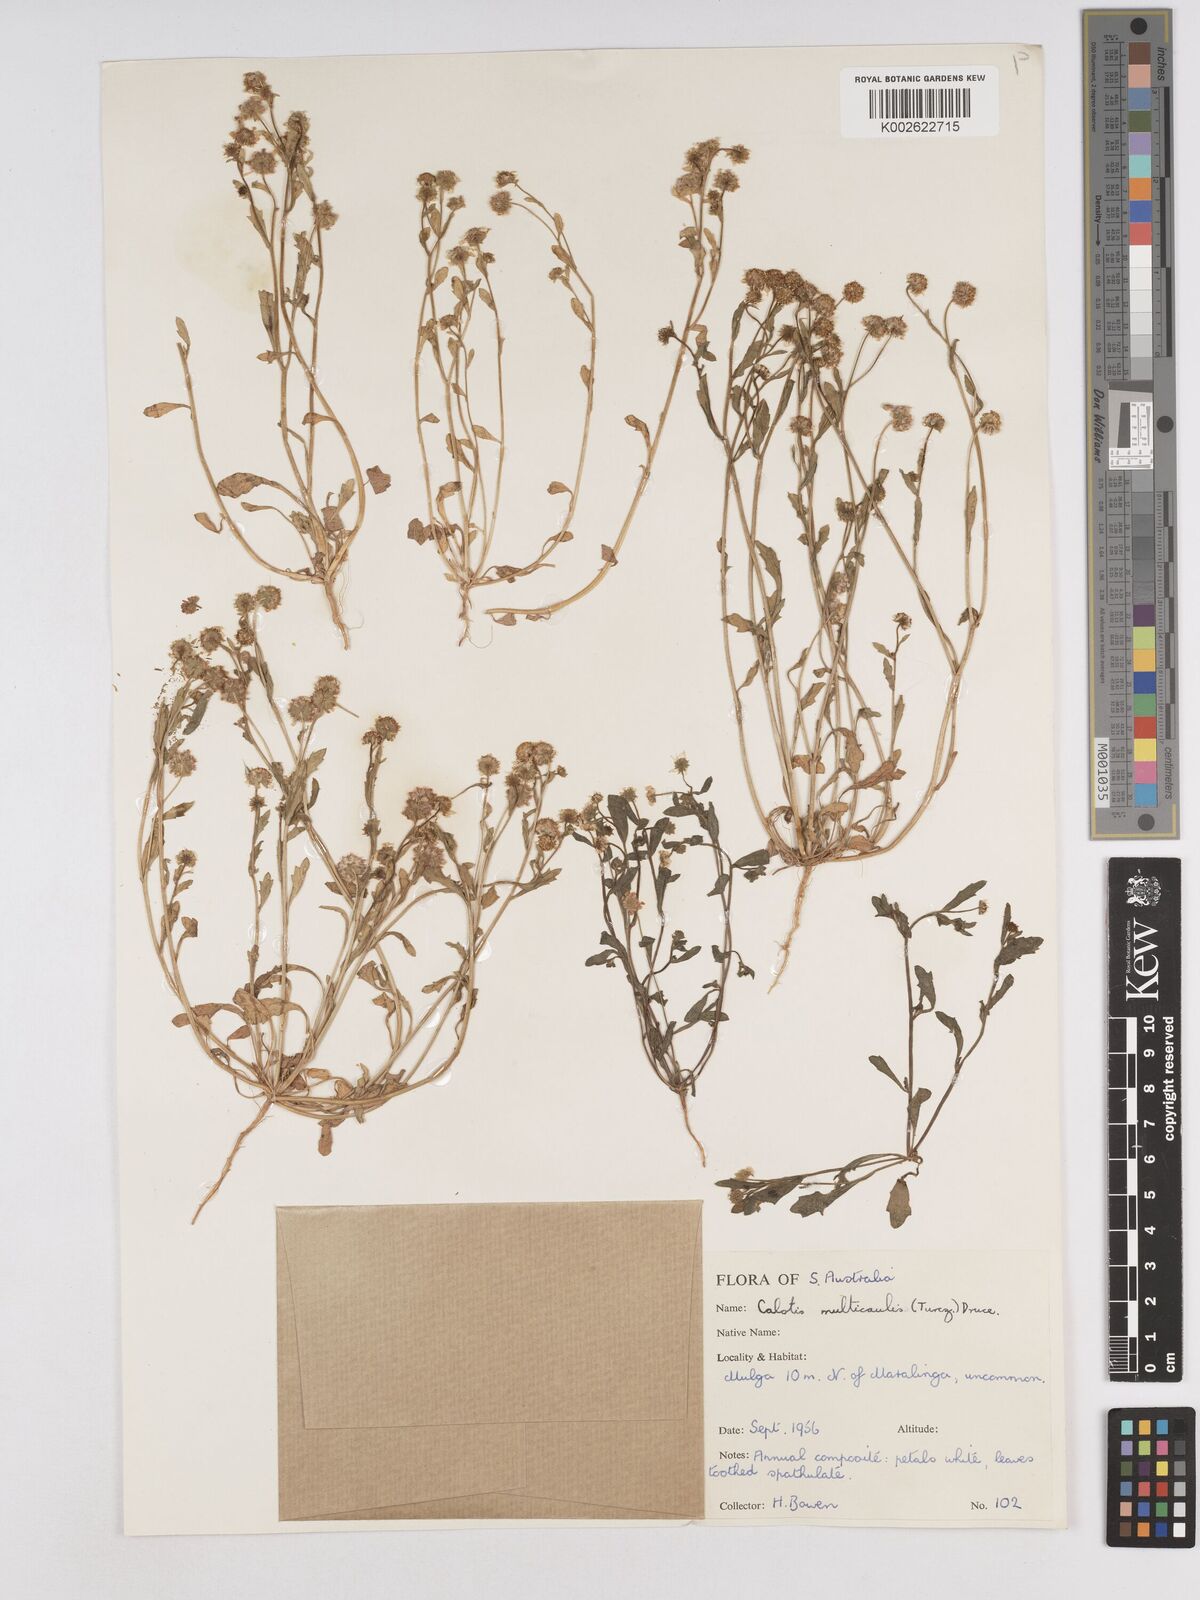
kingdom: Plantae
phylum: Tracheophyta
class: Magnoliopsida
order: Asterales
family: Asteraceae
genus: Calotis
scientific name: Calotis multicaulis
